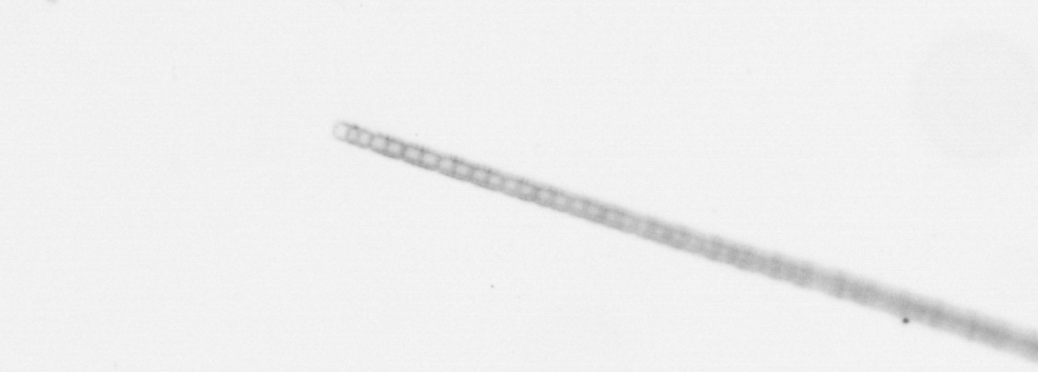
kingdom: Chromista
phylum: Ochrophyta
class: Bacillariophyceae
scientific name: Bacillariophyceae
